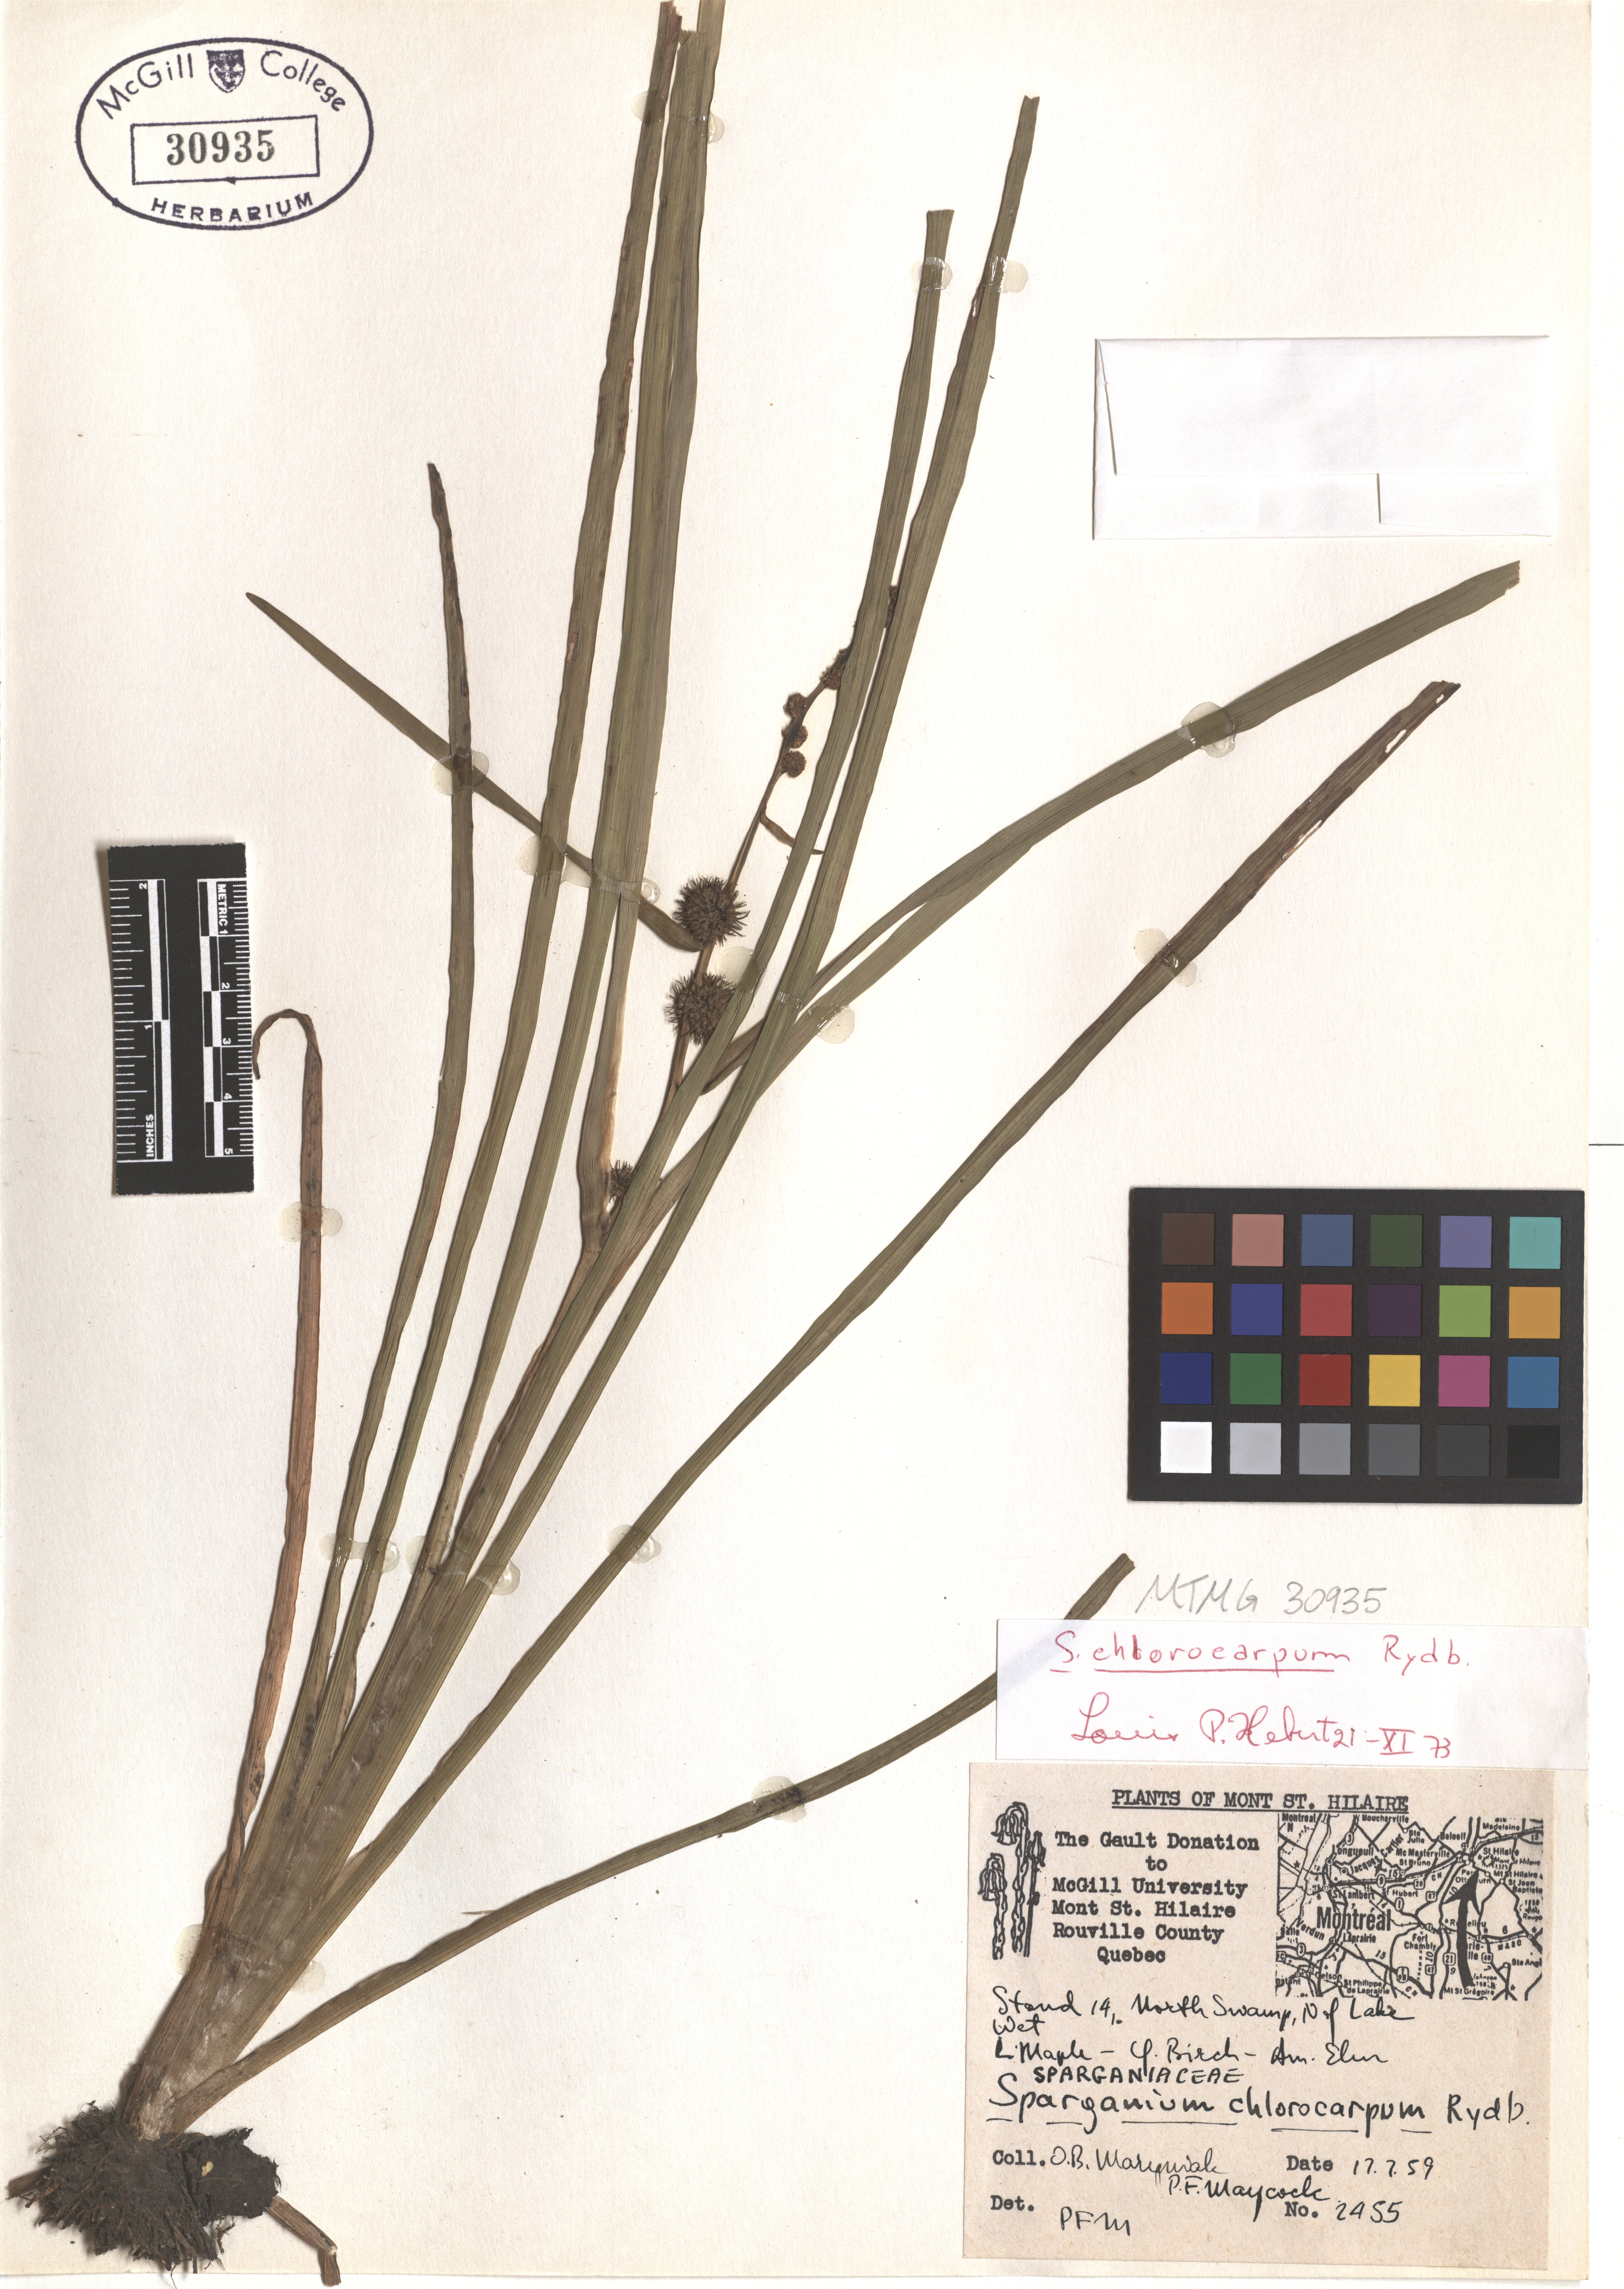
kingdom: Plantae
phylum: Tracheophyta
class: Liliopsida
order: Poales
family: Typhaceae
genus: Sparganium
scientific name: Sparganium emersum
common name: Unbranched bur-reed
